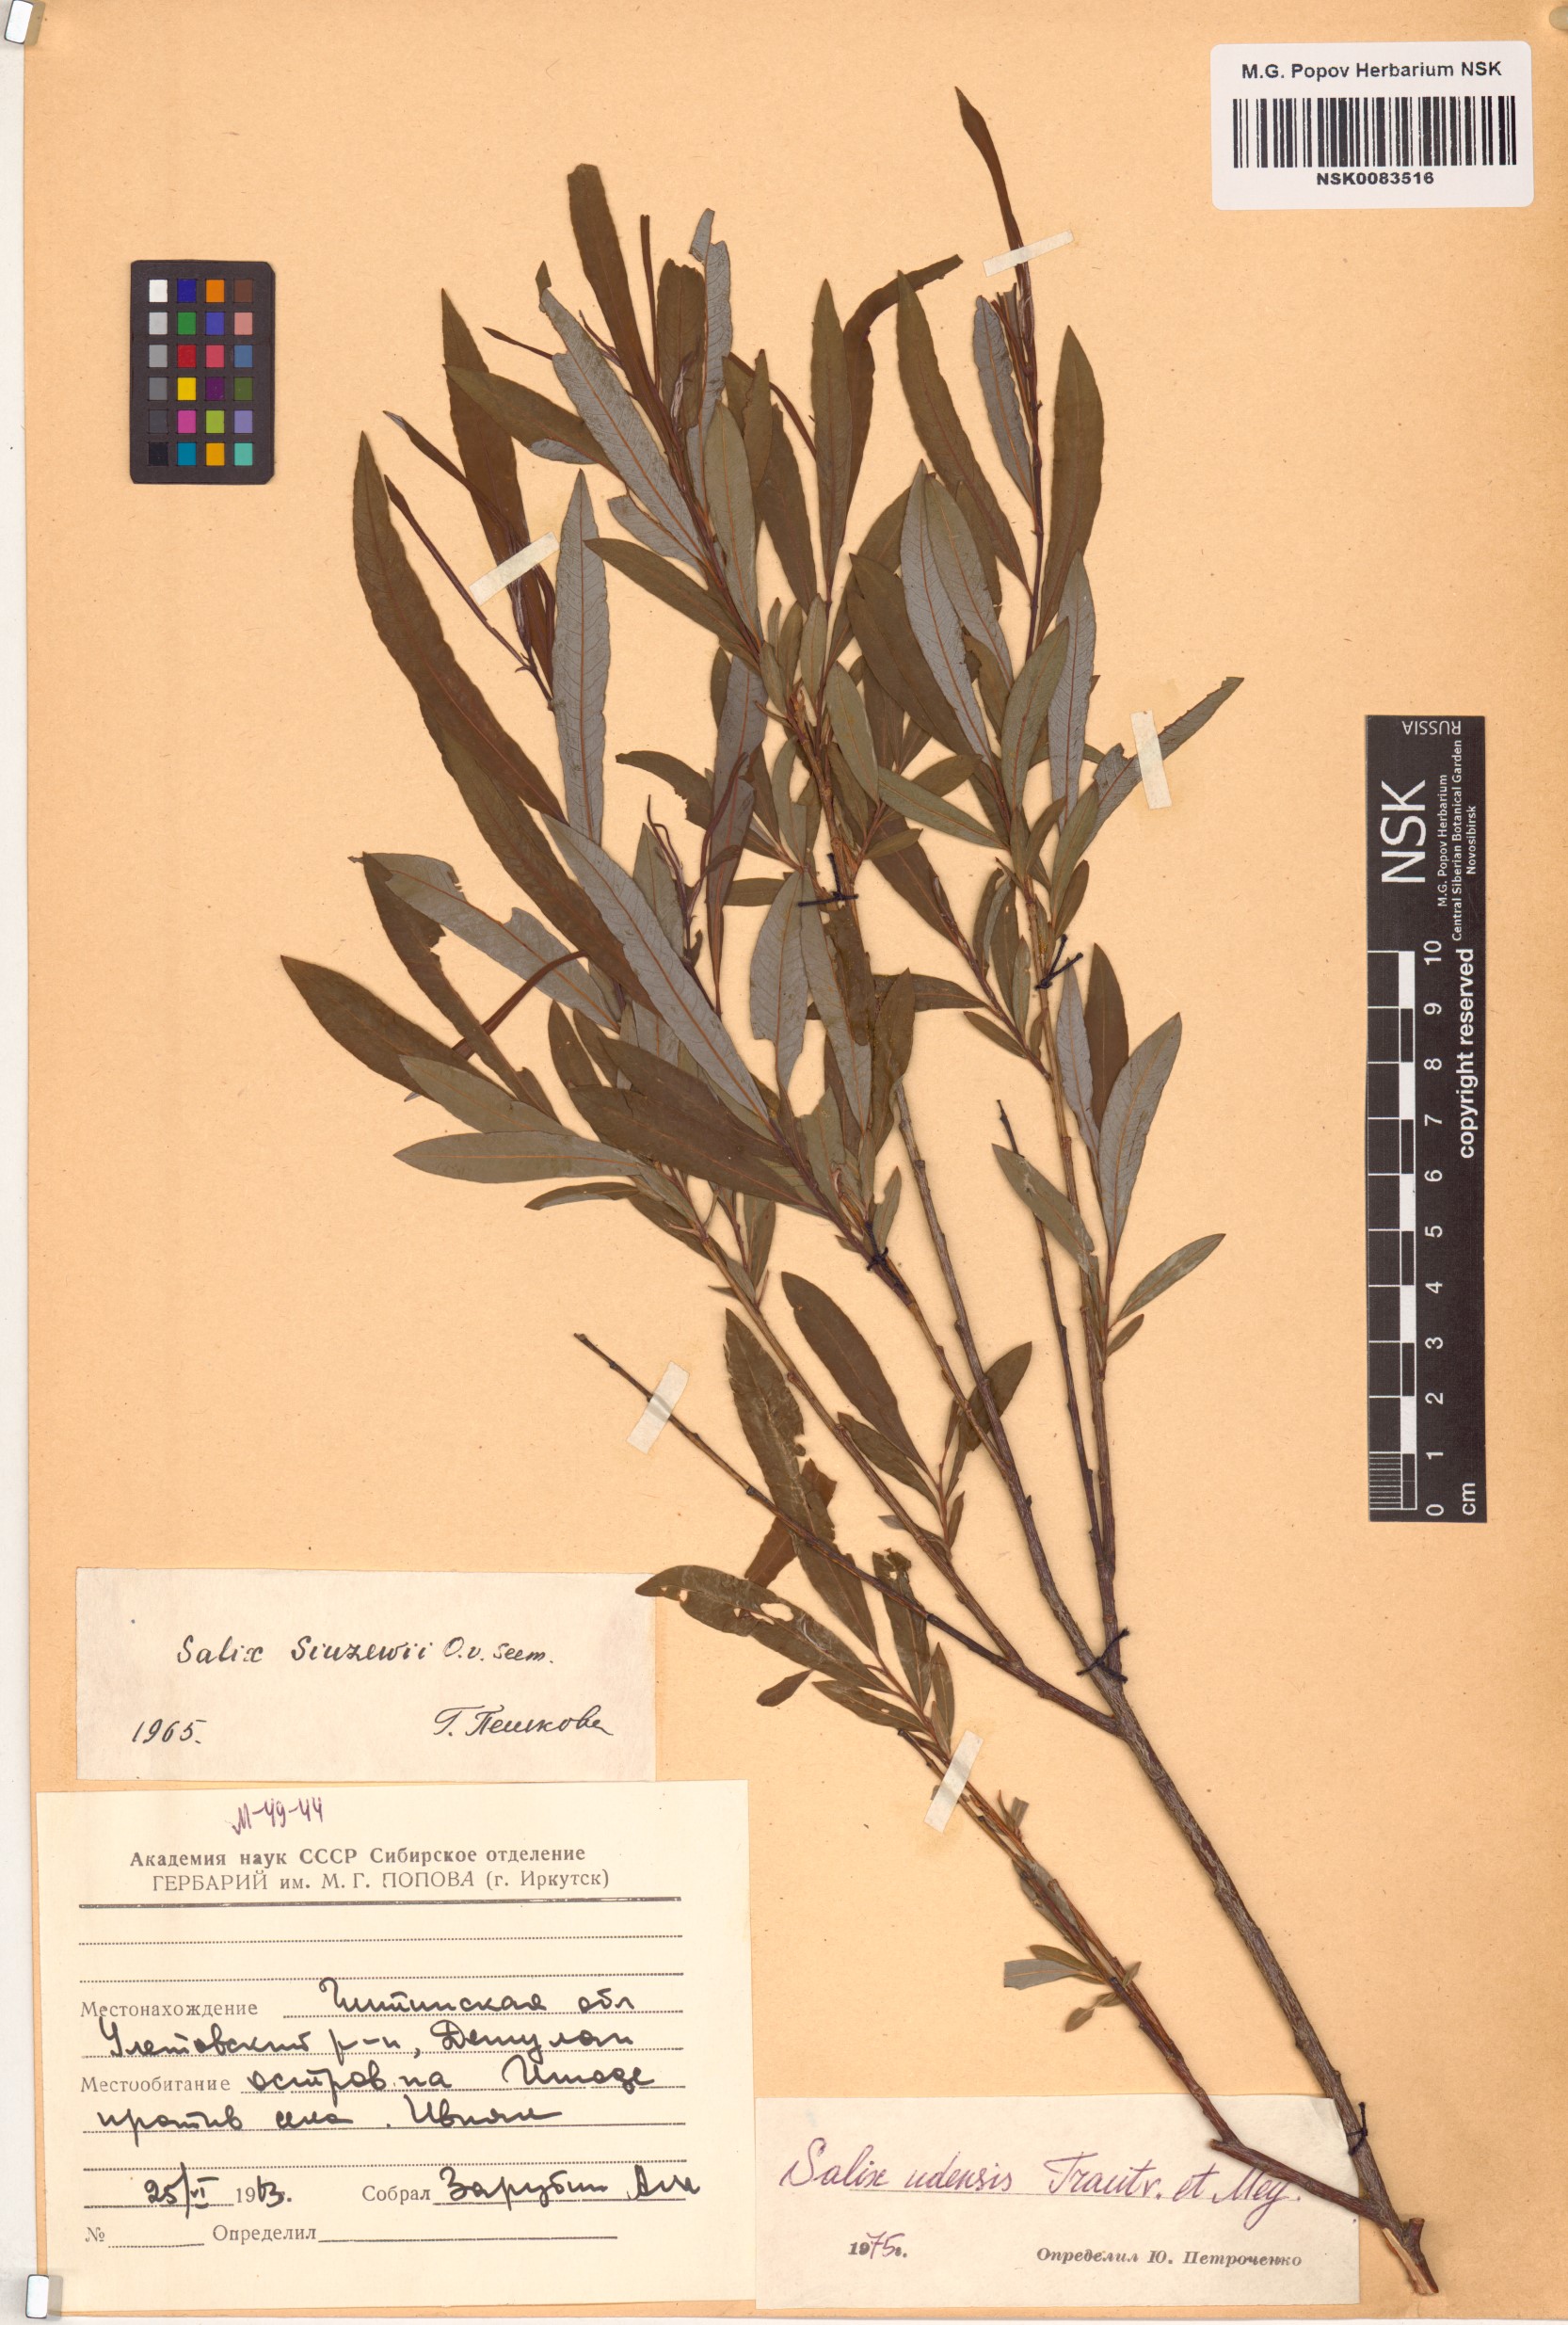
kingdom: Plantae
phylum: Tracheophyta
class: Magnoliopsida
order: Malpighiales
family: Salicaceae
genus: Salix
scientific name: Salix udensis
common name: Sachalin willow
